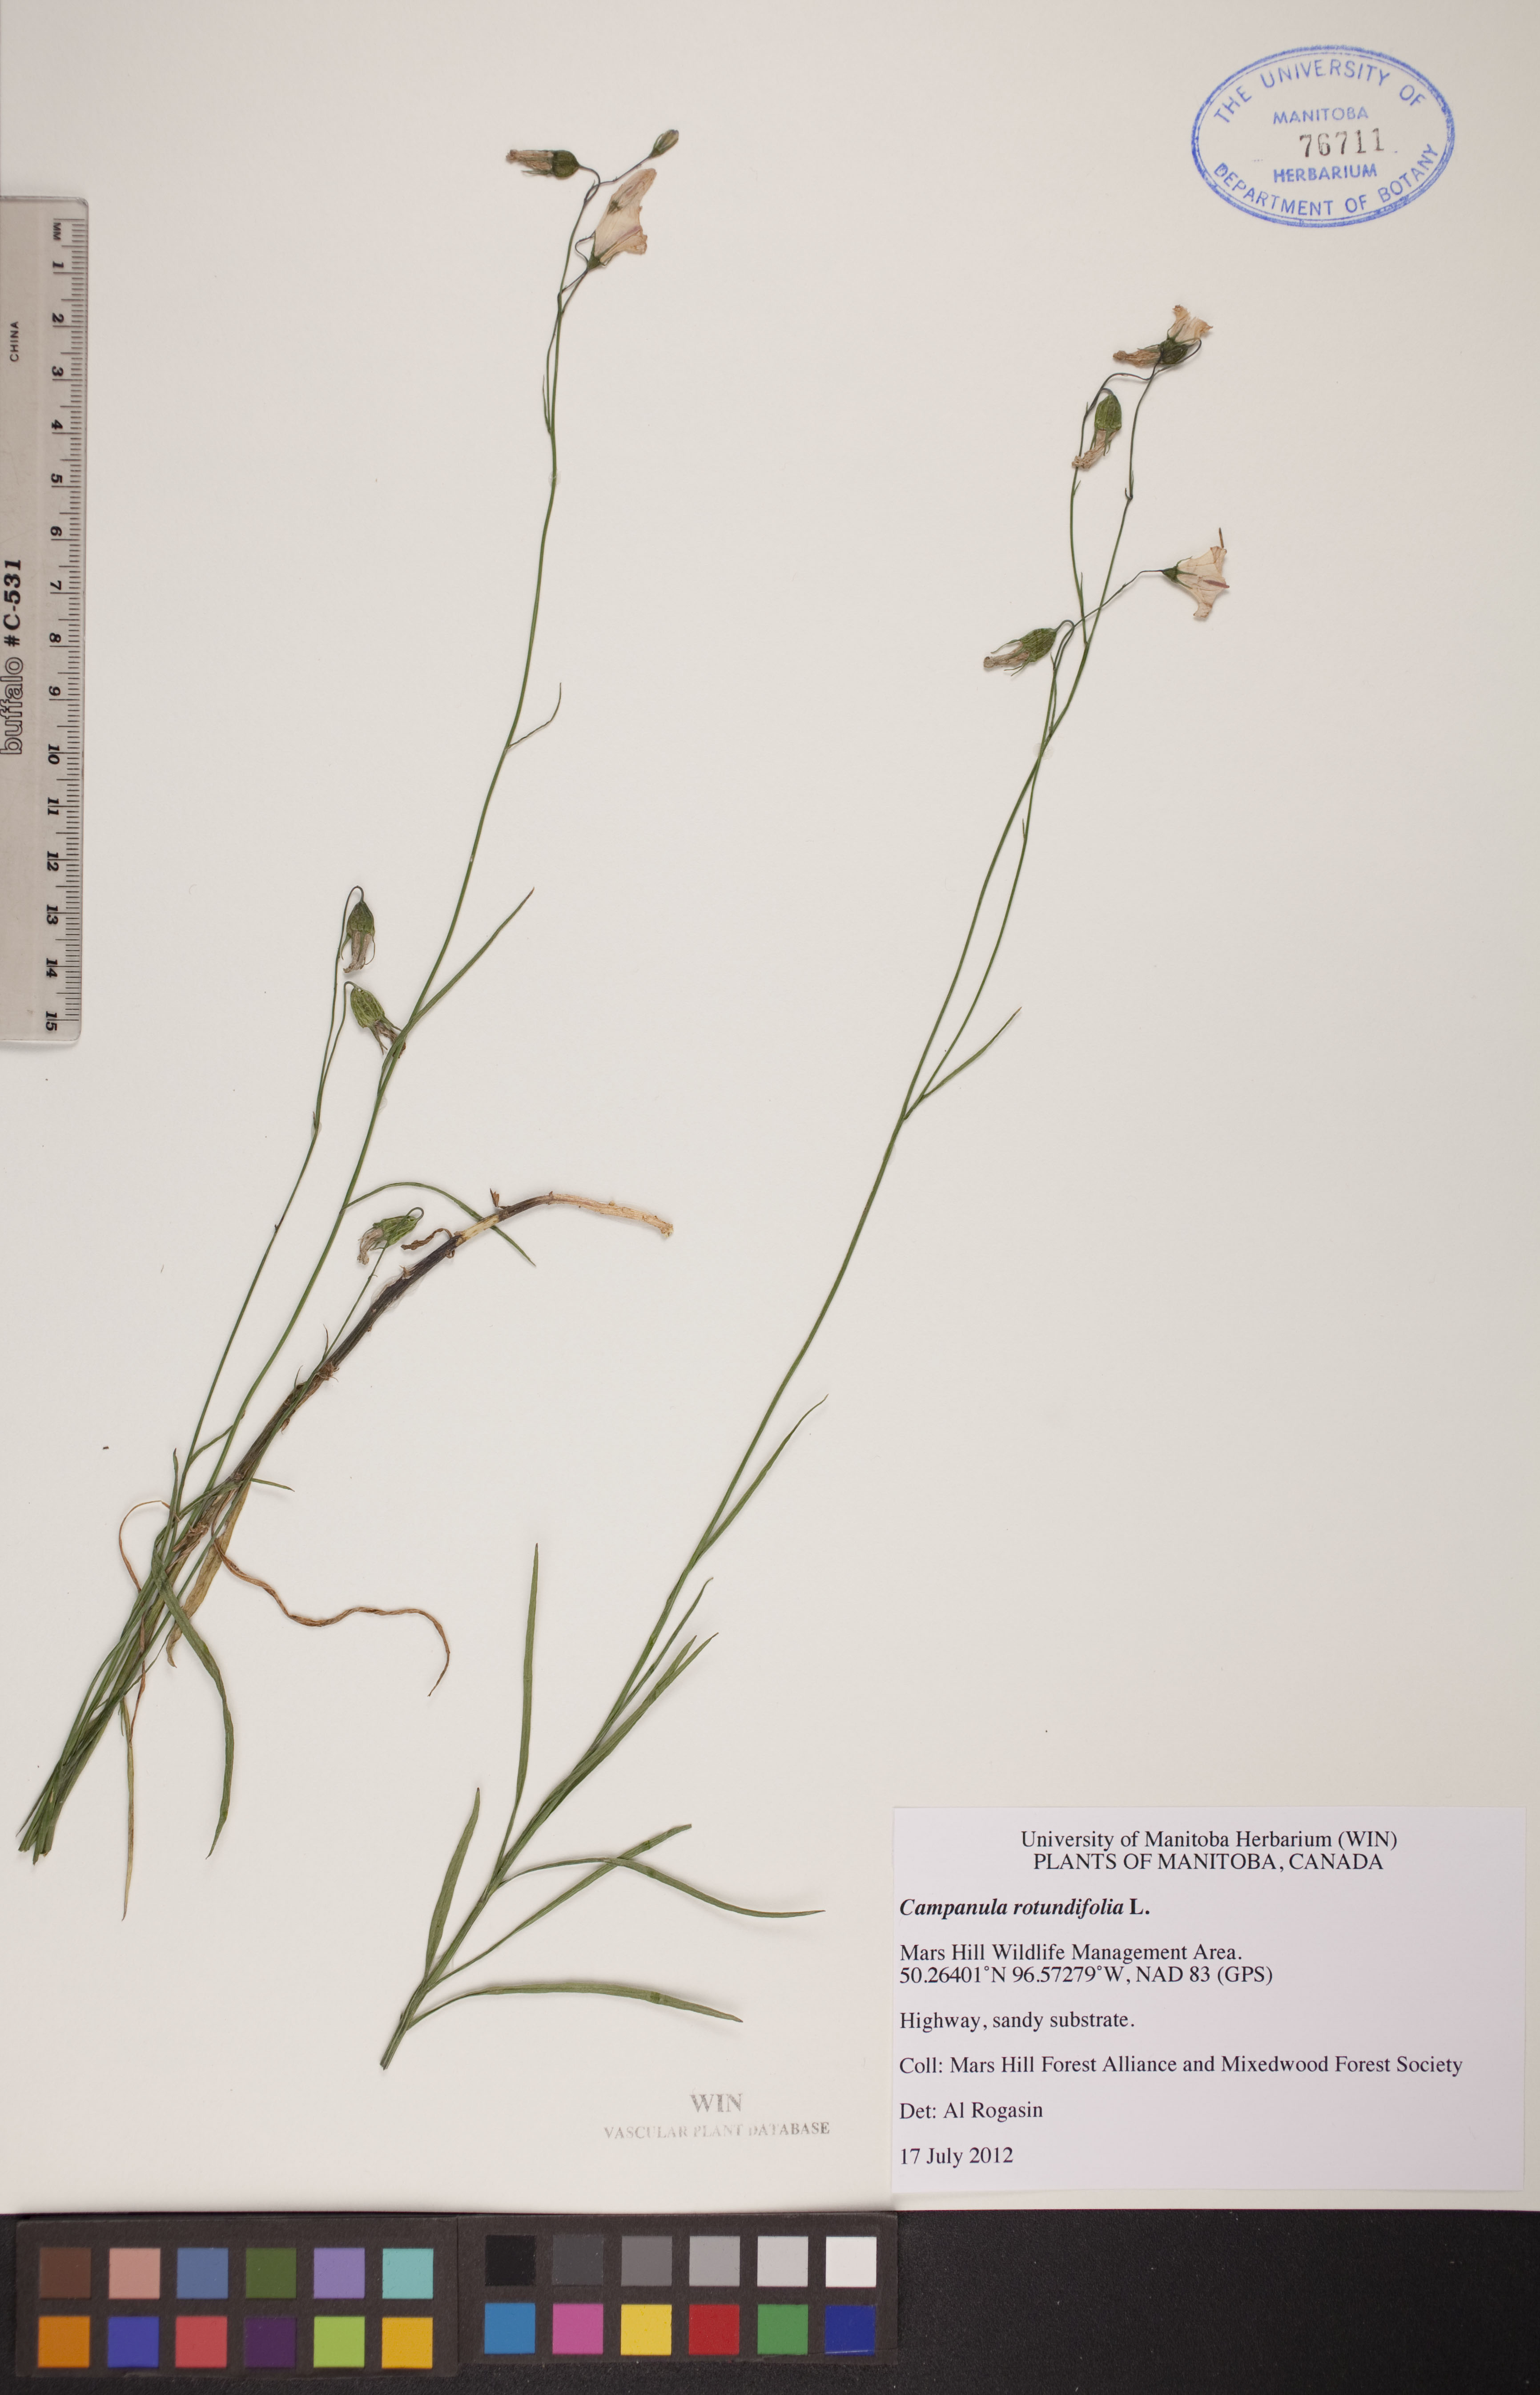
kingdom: Plantae
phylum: Tracheophyta
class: Magnoliopsida
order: Asterales
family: Campanulaceae
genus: Campanula
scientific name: Campanula rotundifolia
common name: Harebell
